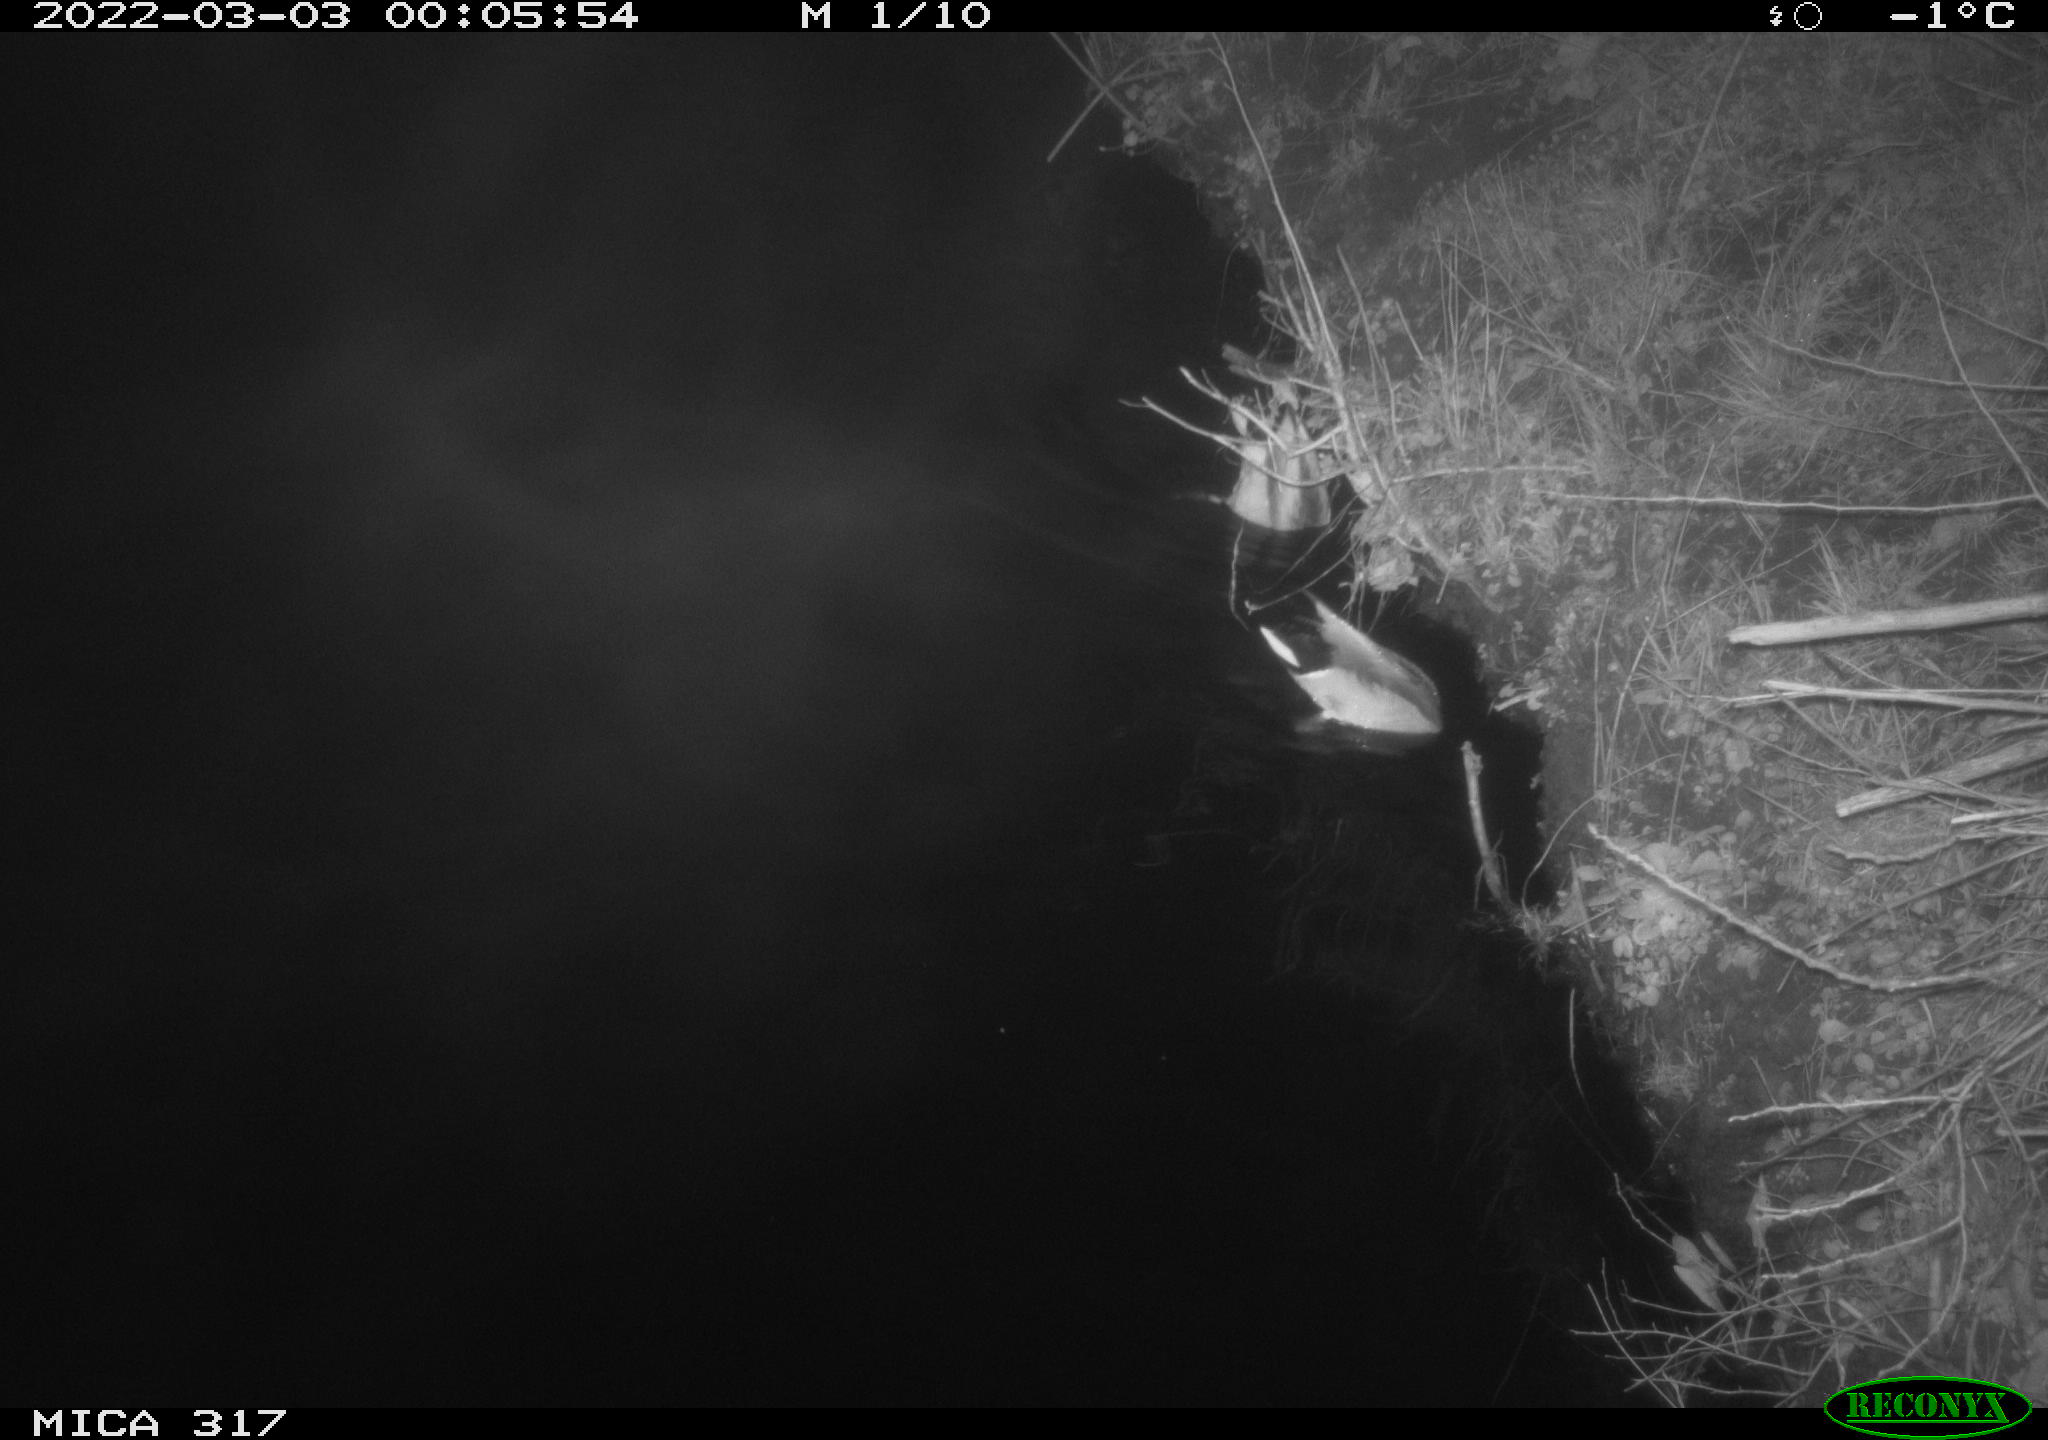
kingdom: Animalia
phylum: Chordata
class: Aves
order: Anseriformes
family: Anatidae
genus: Anas
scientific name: Anas platyrhynchos
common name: Mallard
